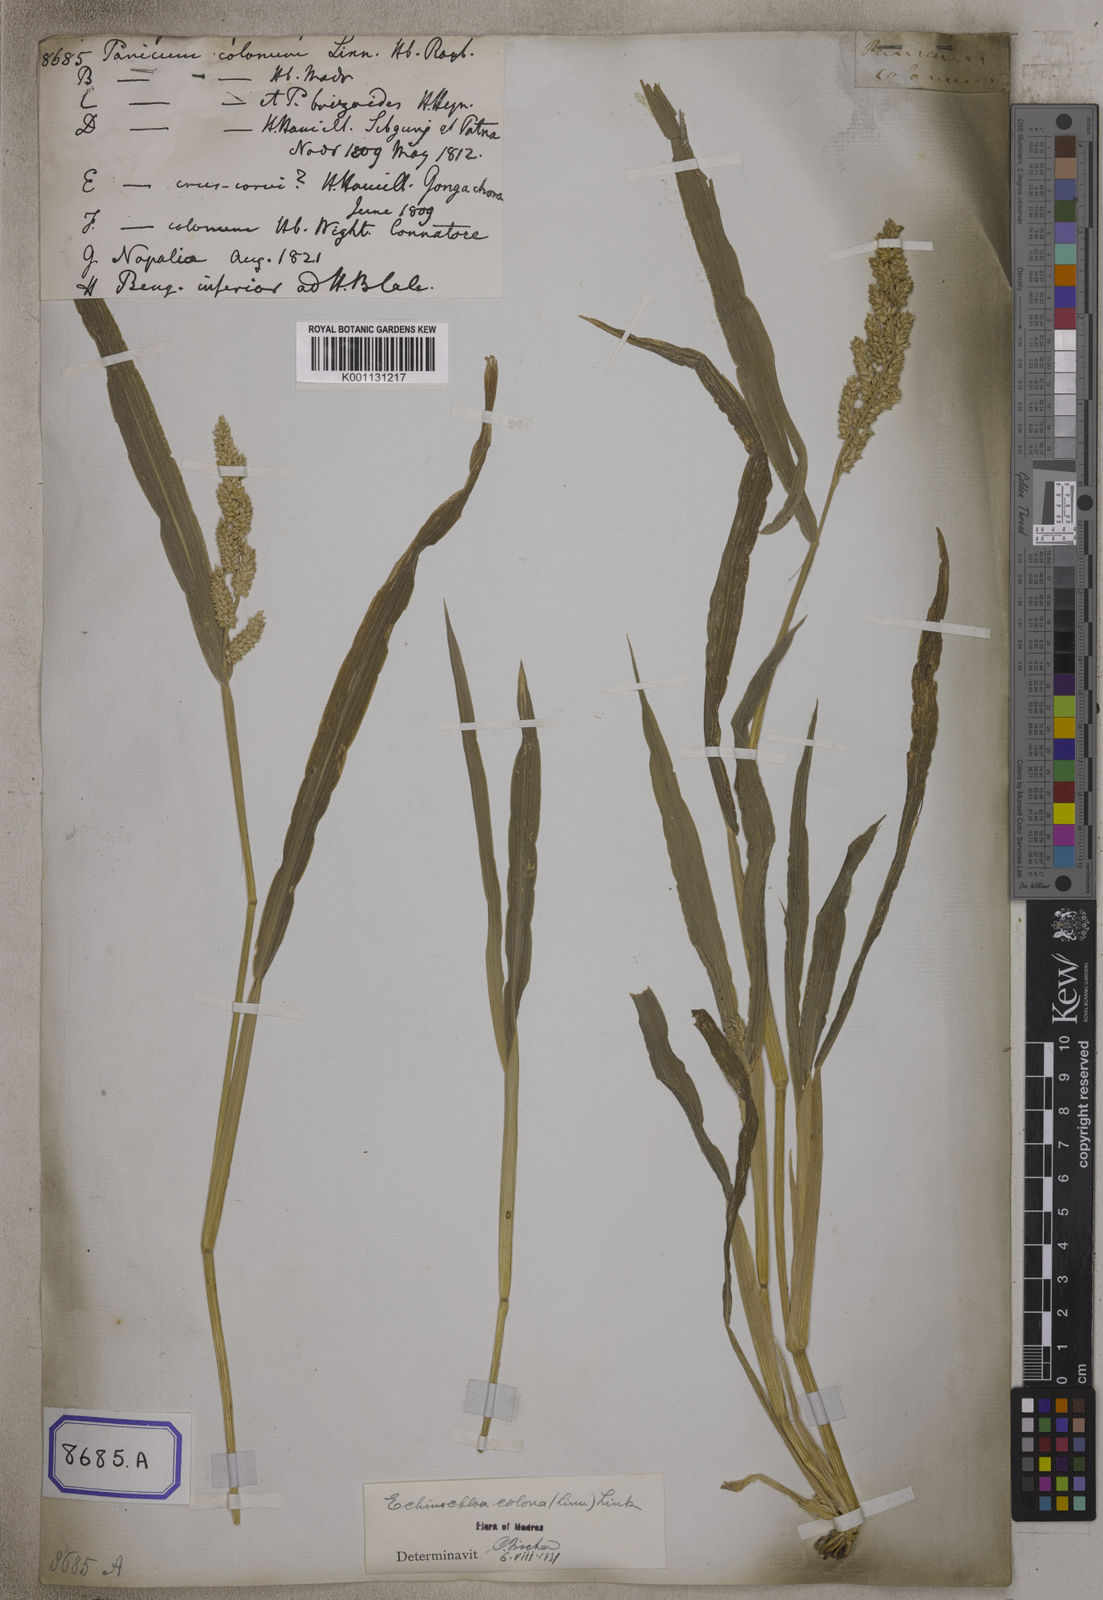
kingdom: Plantae
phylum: Tracheophyta
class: Liliopsida
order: Poales
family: Poaceae
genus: Echinochloa
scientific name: Echinochloa colonum
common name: Jungle rice
